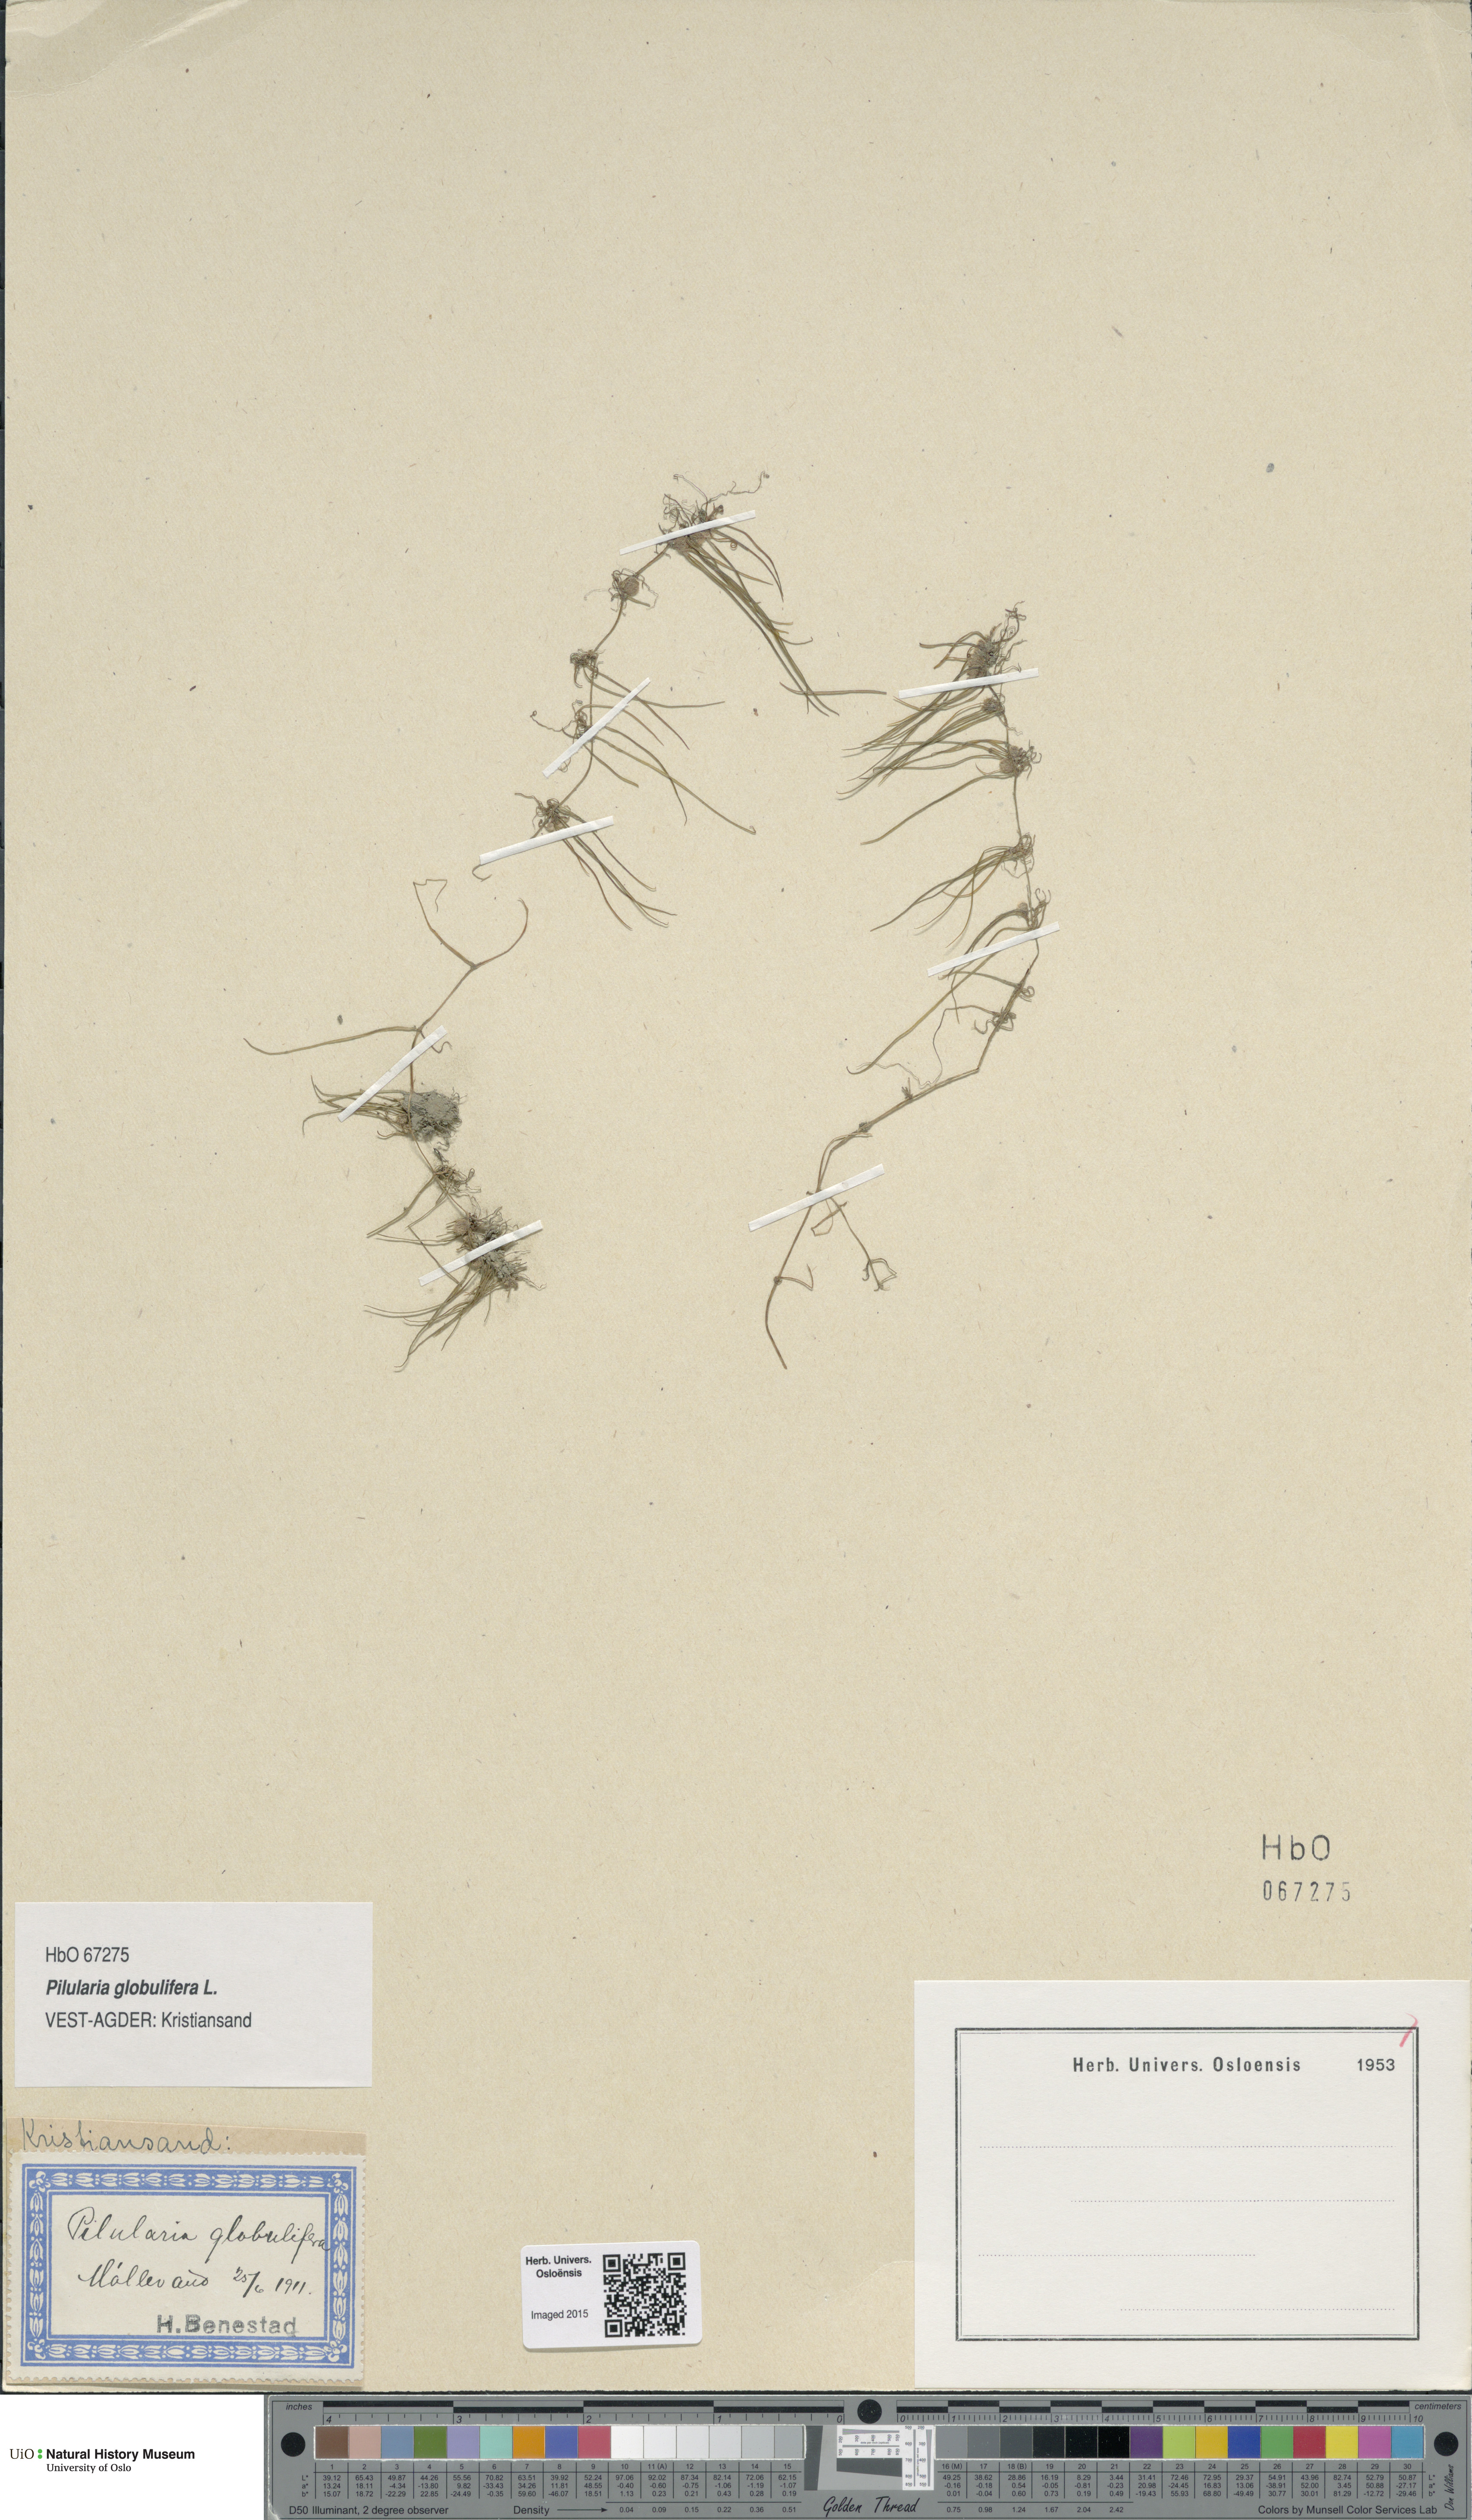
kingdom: Plantae
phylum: Tracheophyta
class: Polypodiopsida
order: Salviniales
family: Marsileaceae
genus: Pilularia
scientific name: Pilularia globulifera
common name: Pillwort
